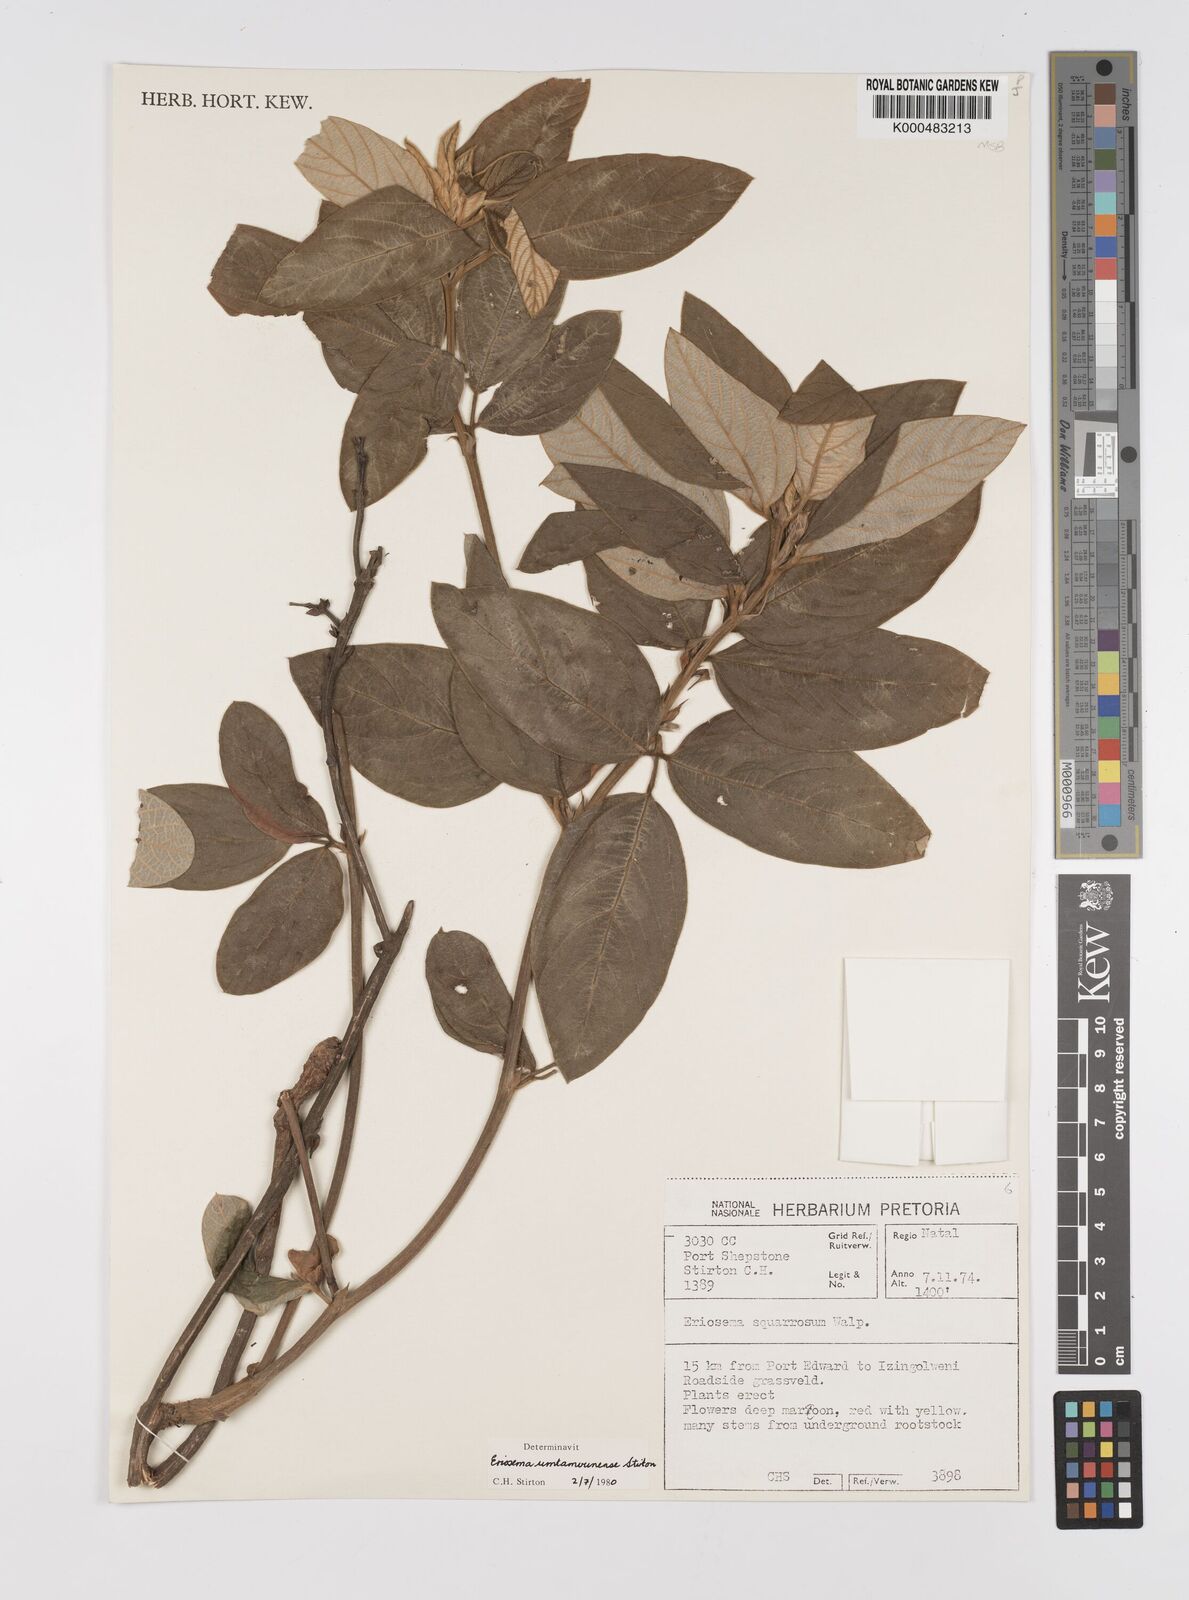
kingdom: Plantae
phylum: Tracheophyta
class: Magnoliopsida
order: Fabales
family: Fabaceae
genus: Eriosema
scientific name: Eriosema umtamvunense
